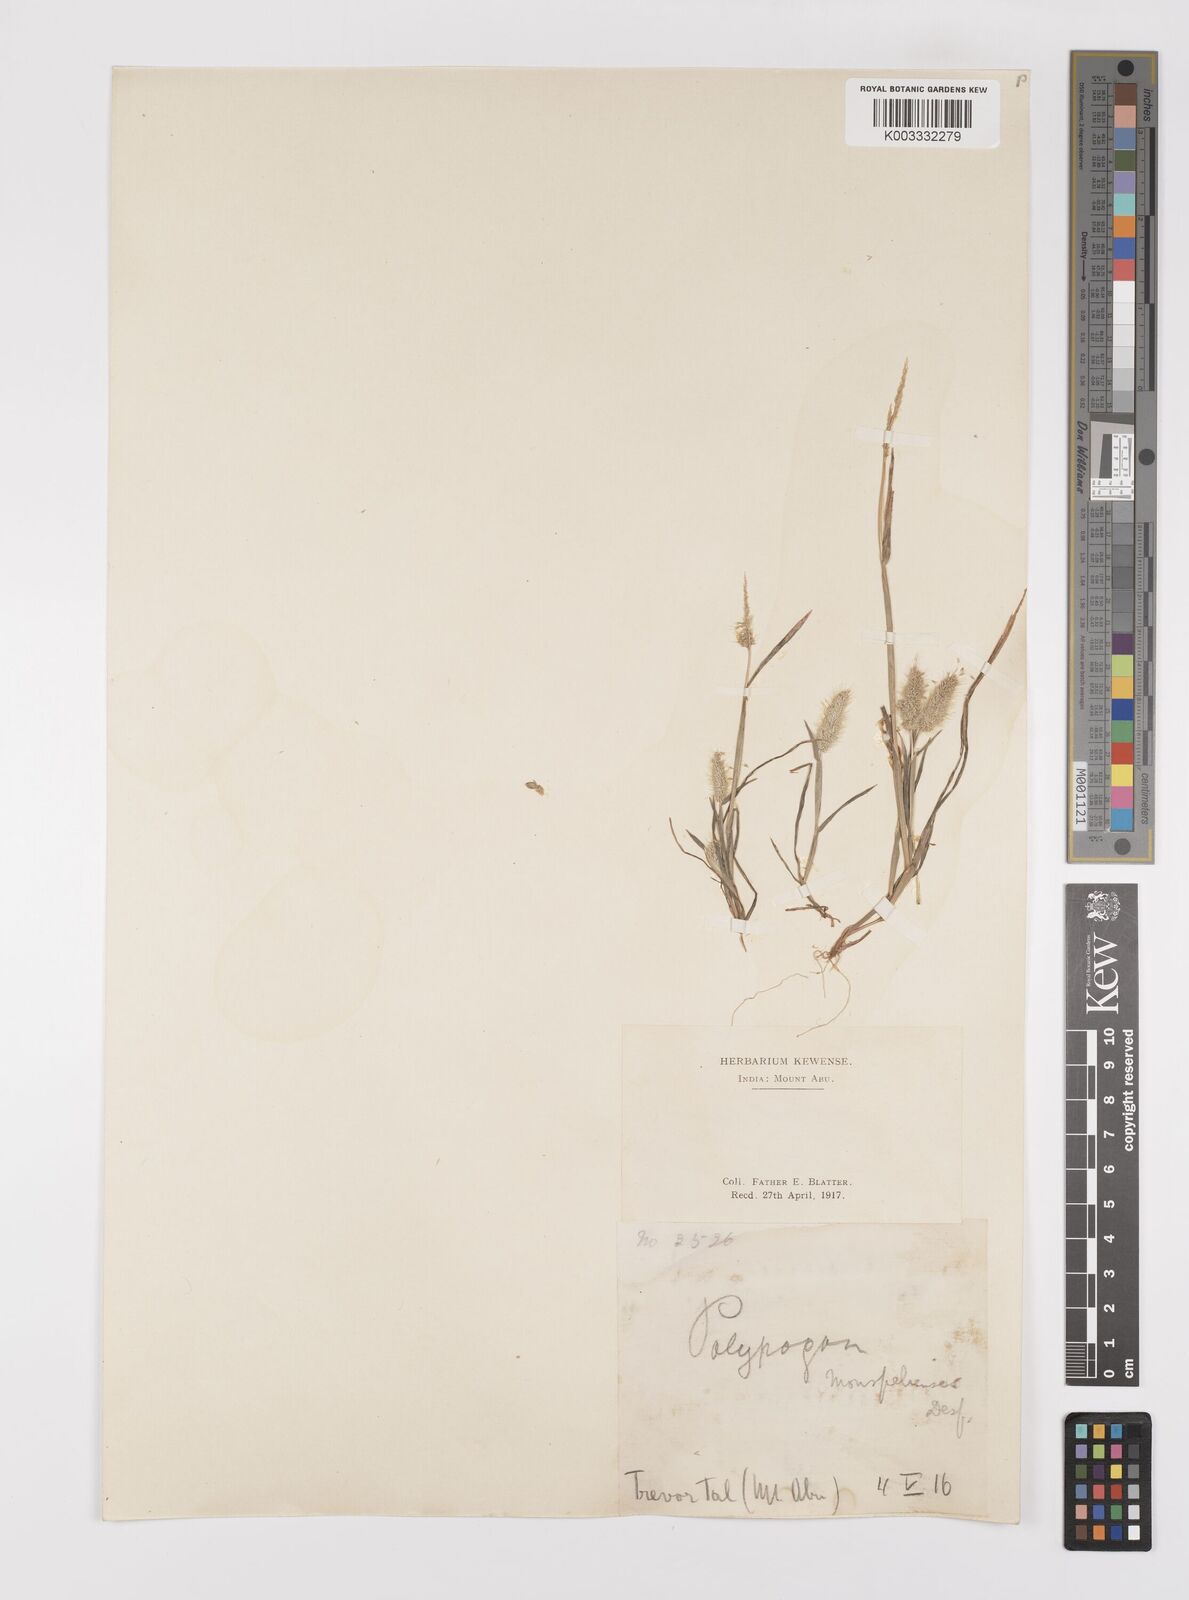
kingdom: Plantae
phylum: Tracheophyta
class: Liliopsida
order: Poales
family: Poaceae
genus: Polypogon
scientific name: Polypogon monspeliensis
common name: Annual rabbitsfoot grass
